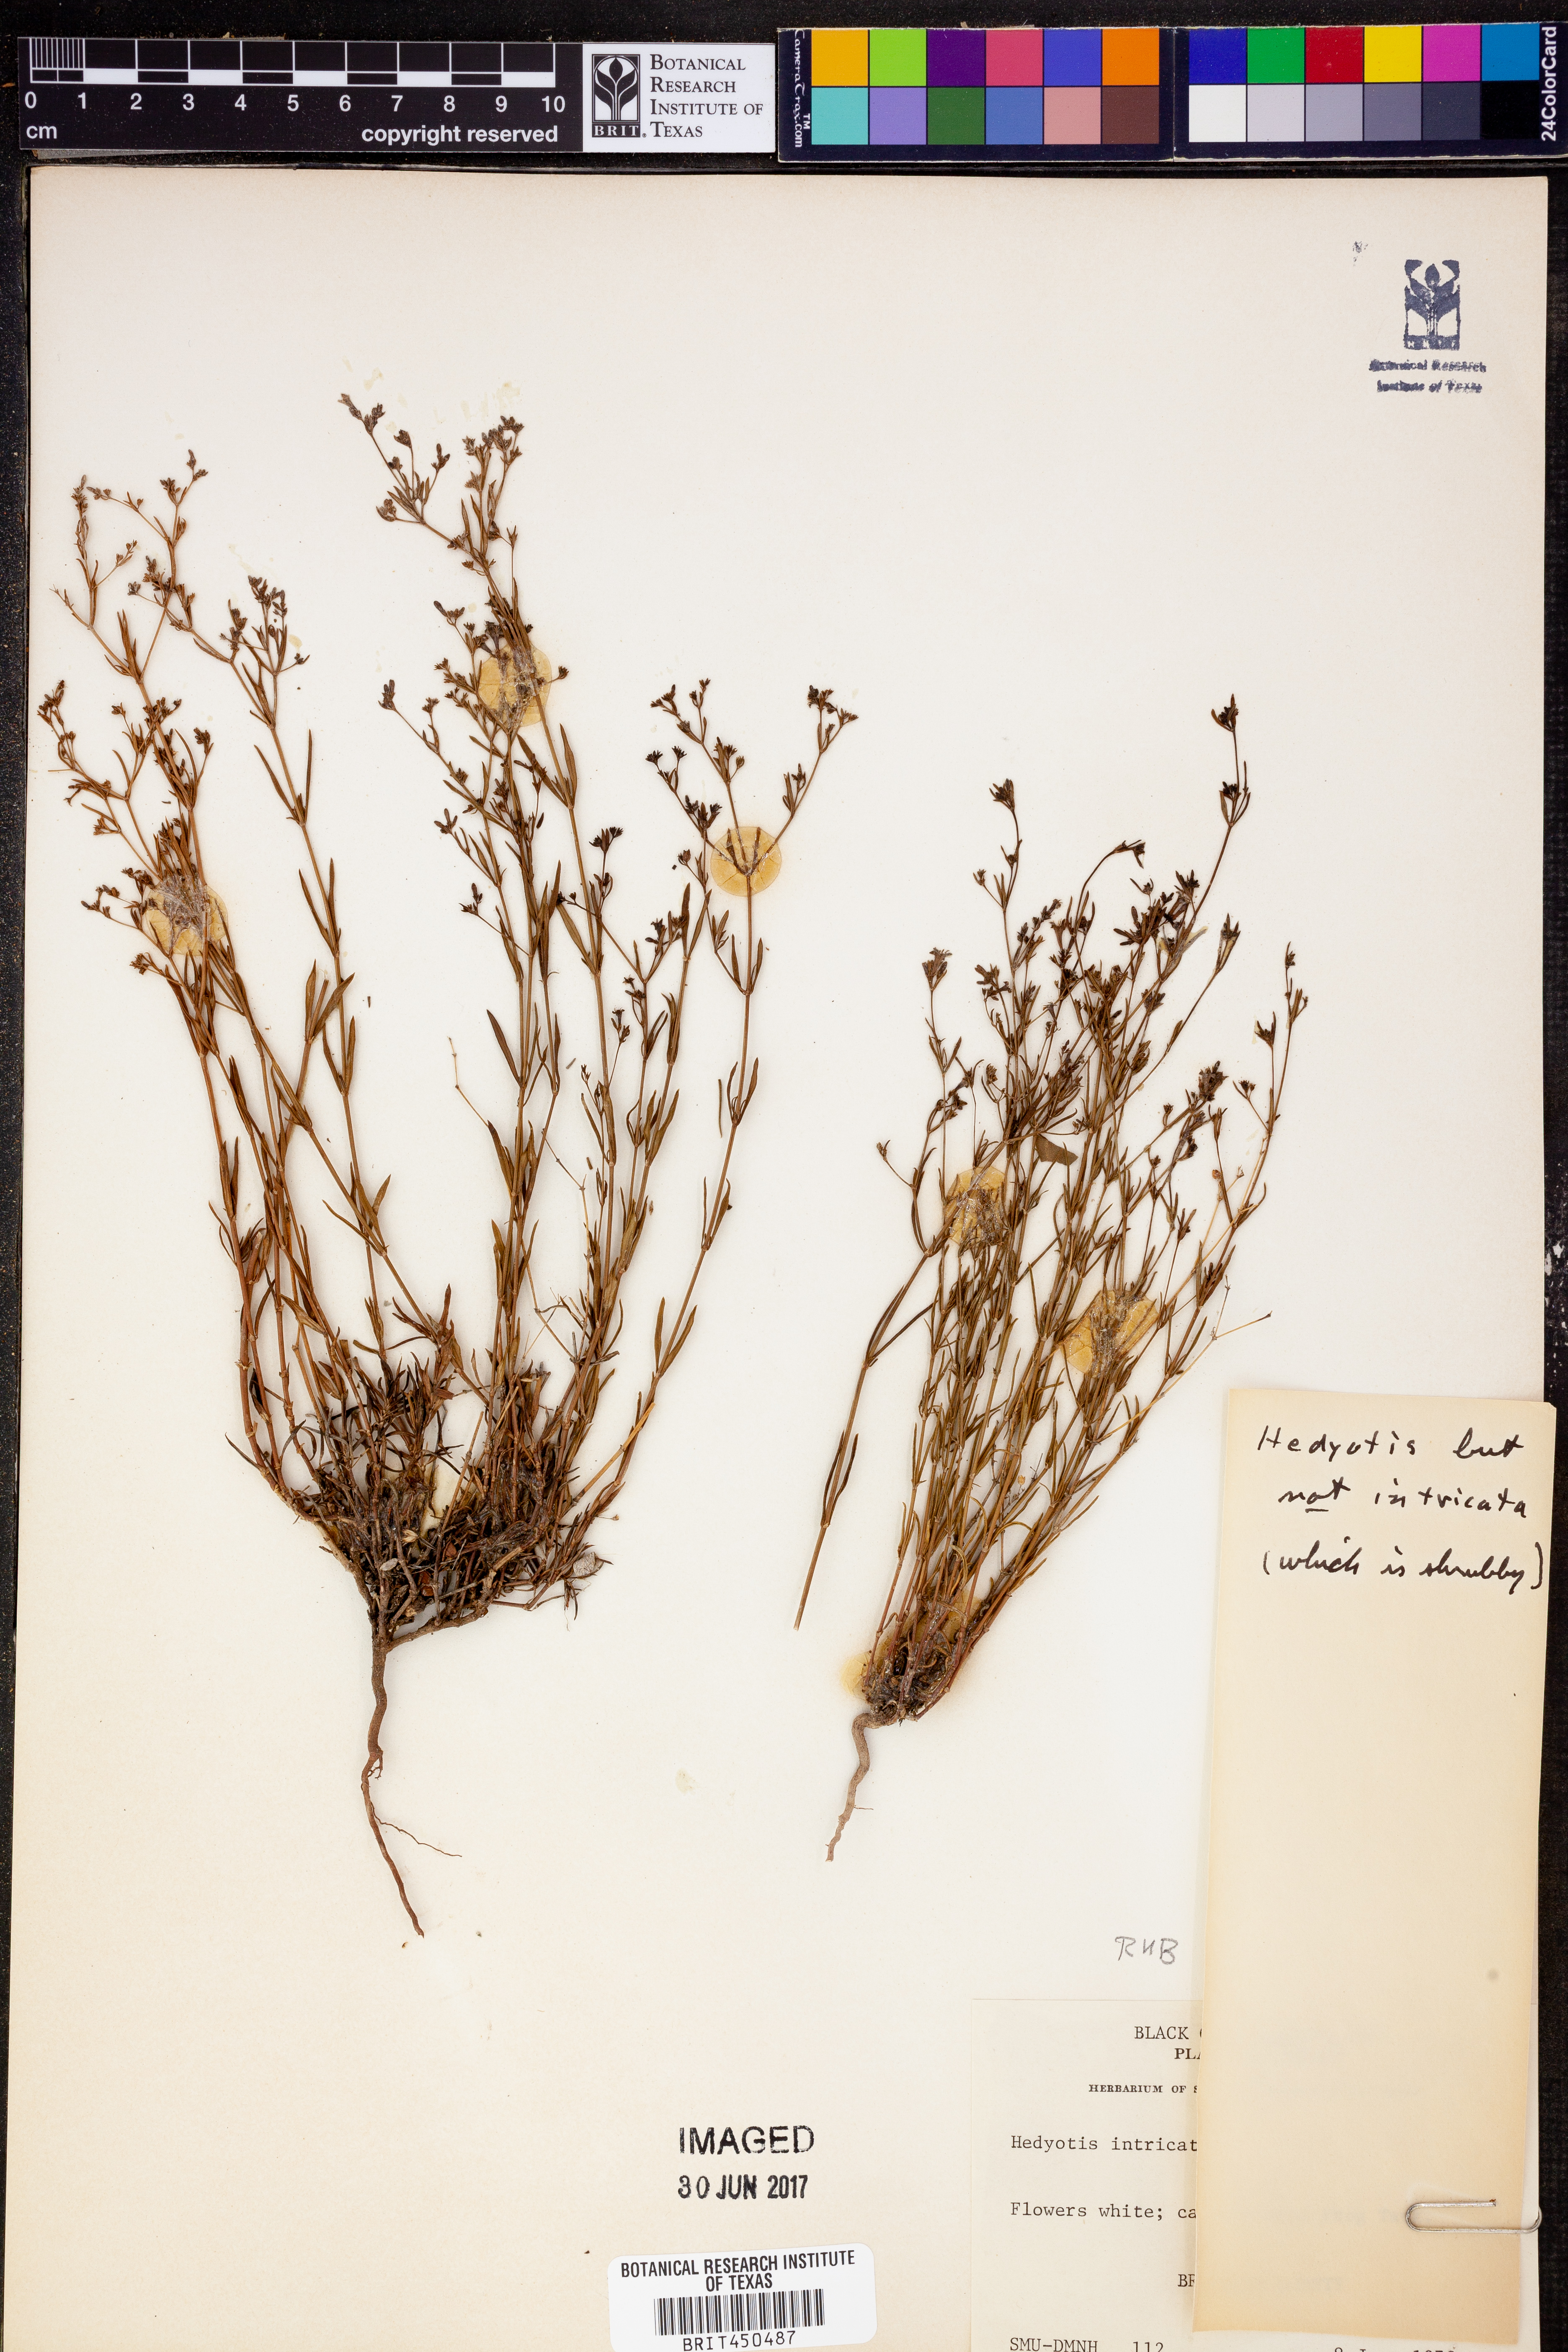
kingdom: Plantae
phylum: Tracheophyta
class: Magnoliopsida
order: Gentianales
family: Rubiaceae
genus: Hedyotis
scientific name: Hedyotis
